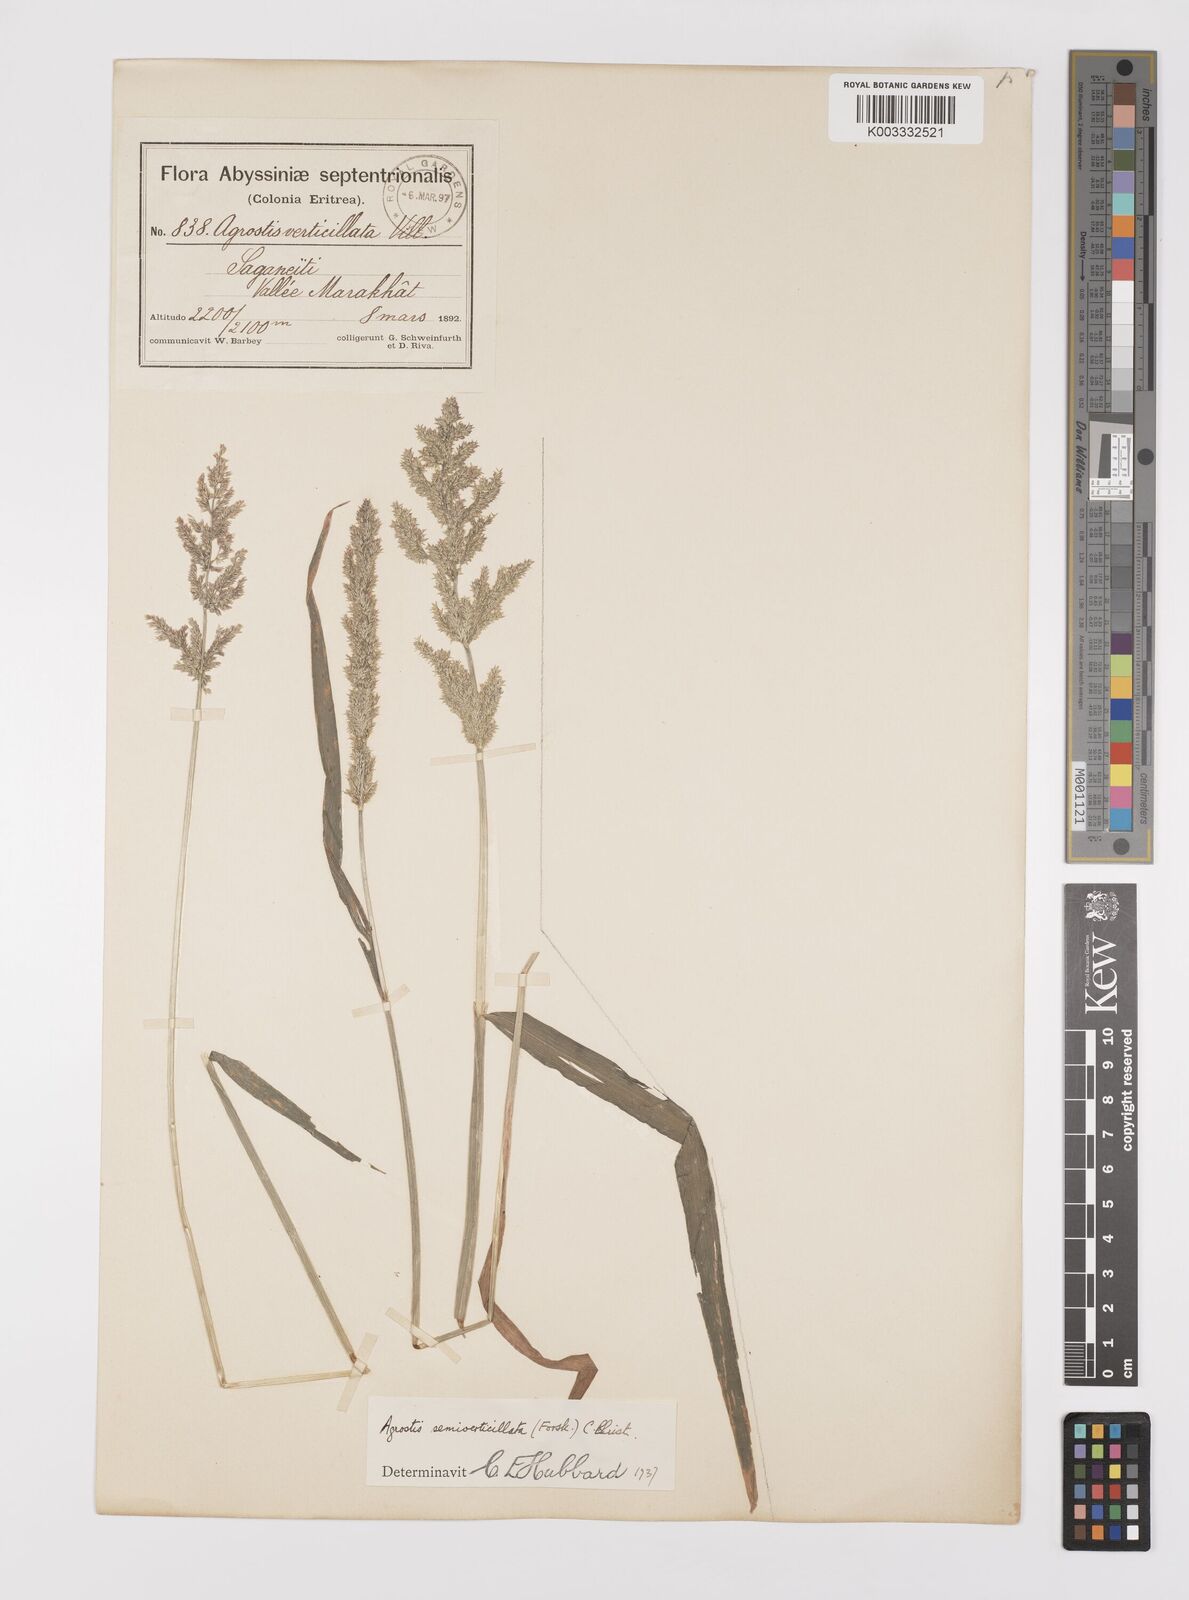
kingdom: Plantae
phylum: Tracheophyta
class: Liliopsida
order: Poales
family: Poaceae
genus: Polypogon
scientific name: Polypogon viridis
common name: Water bent
